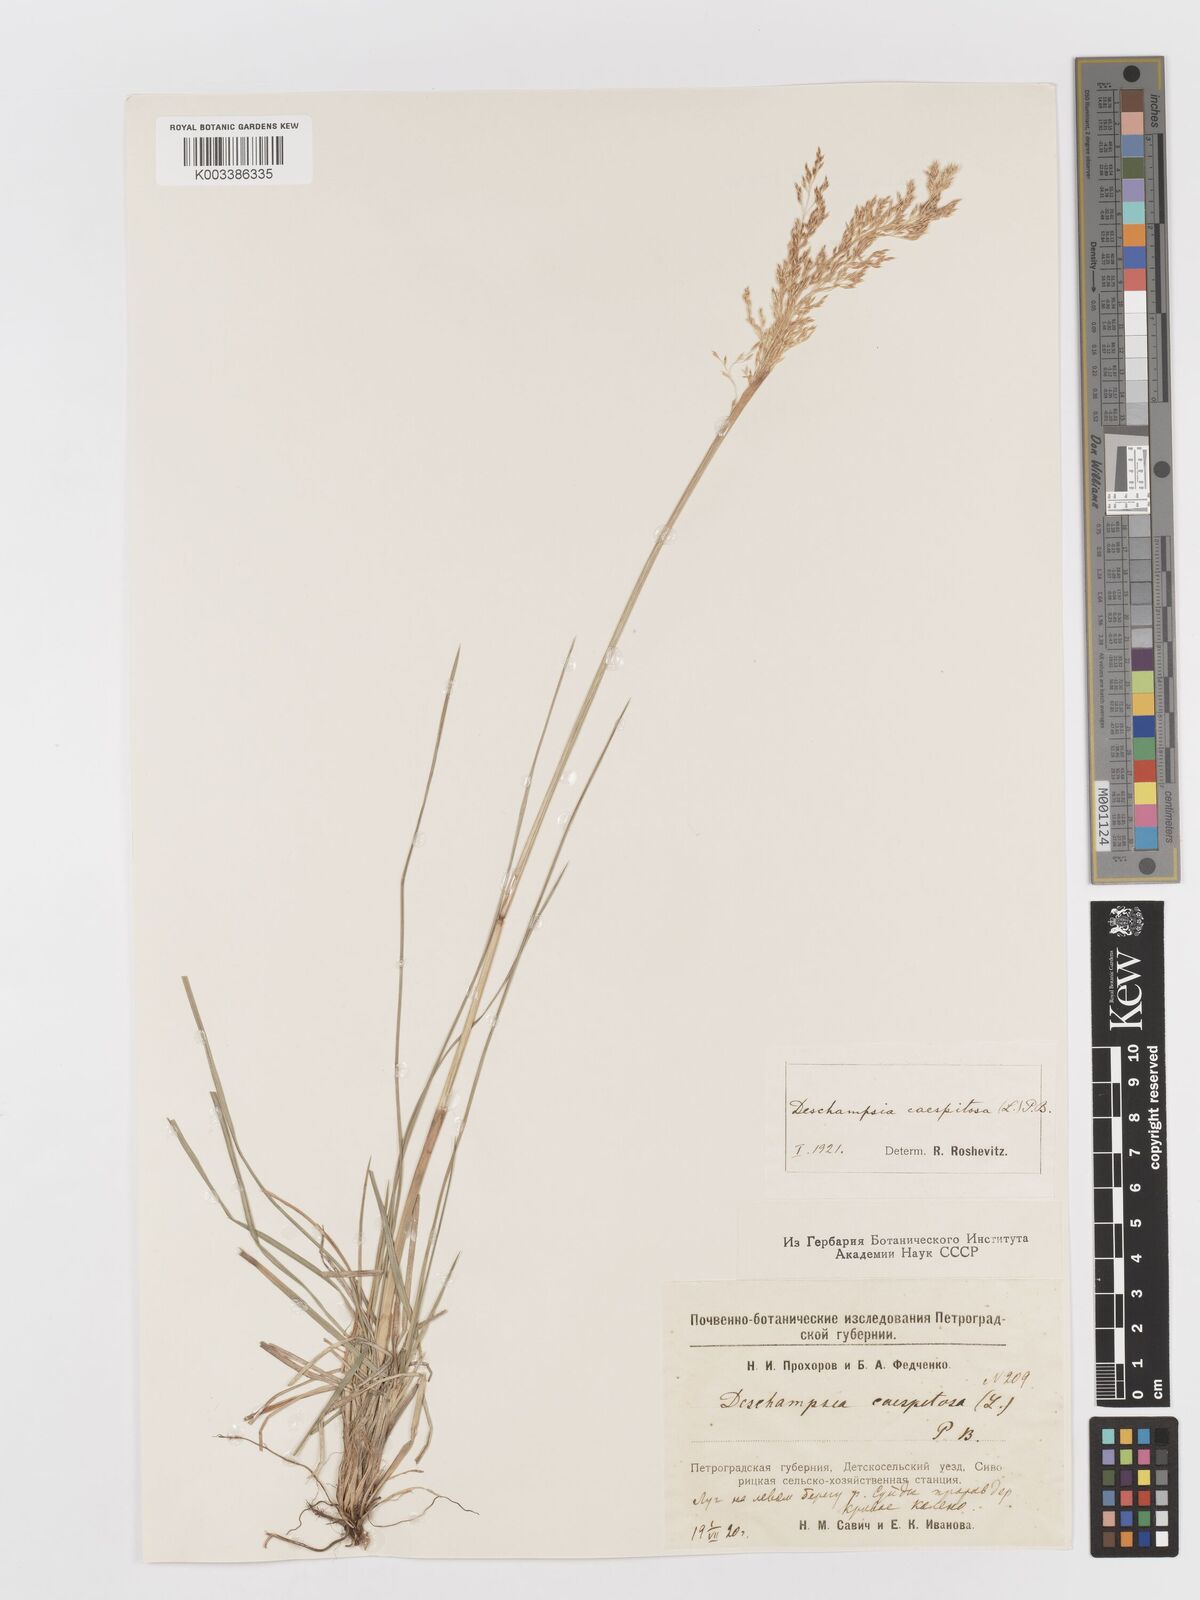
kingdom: Plantae
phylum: Tracheophyta
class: Liliopsida
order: Poales
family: Poaceae
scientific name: Poaceae
